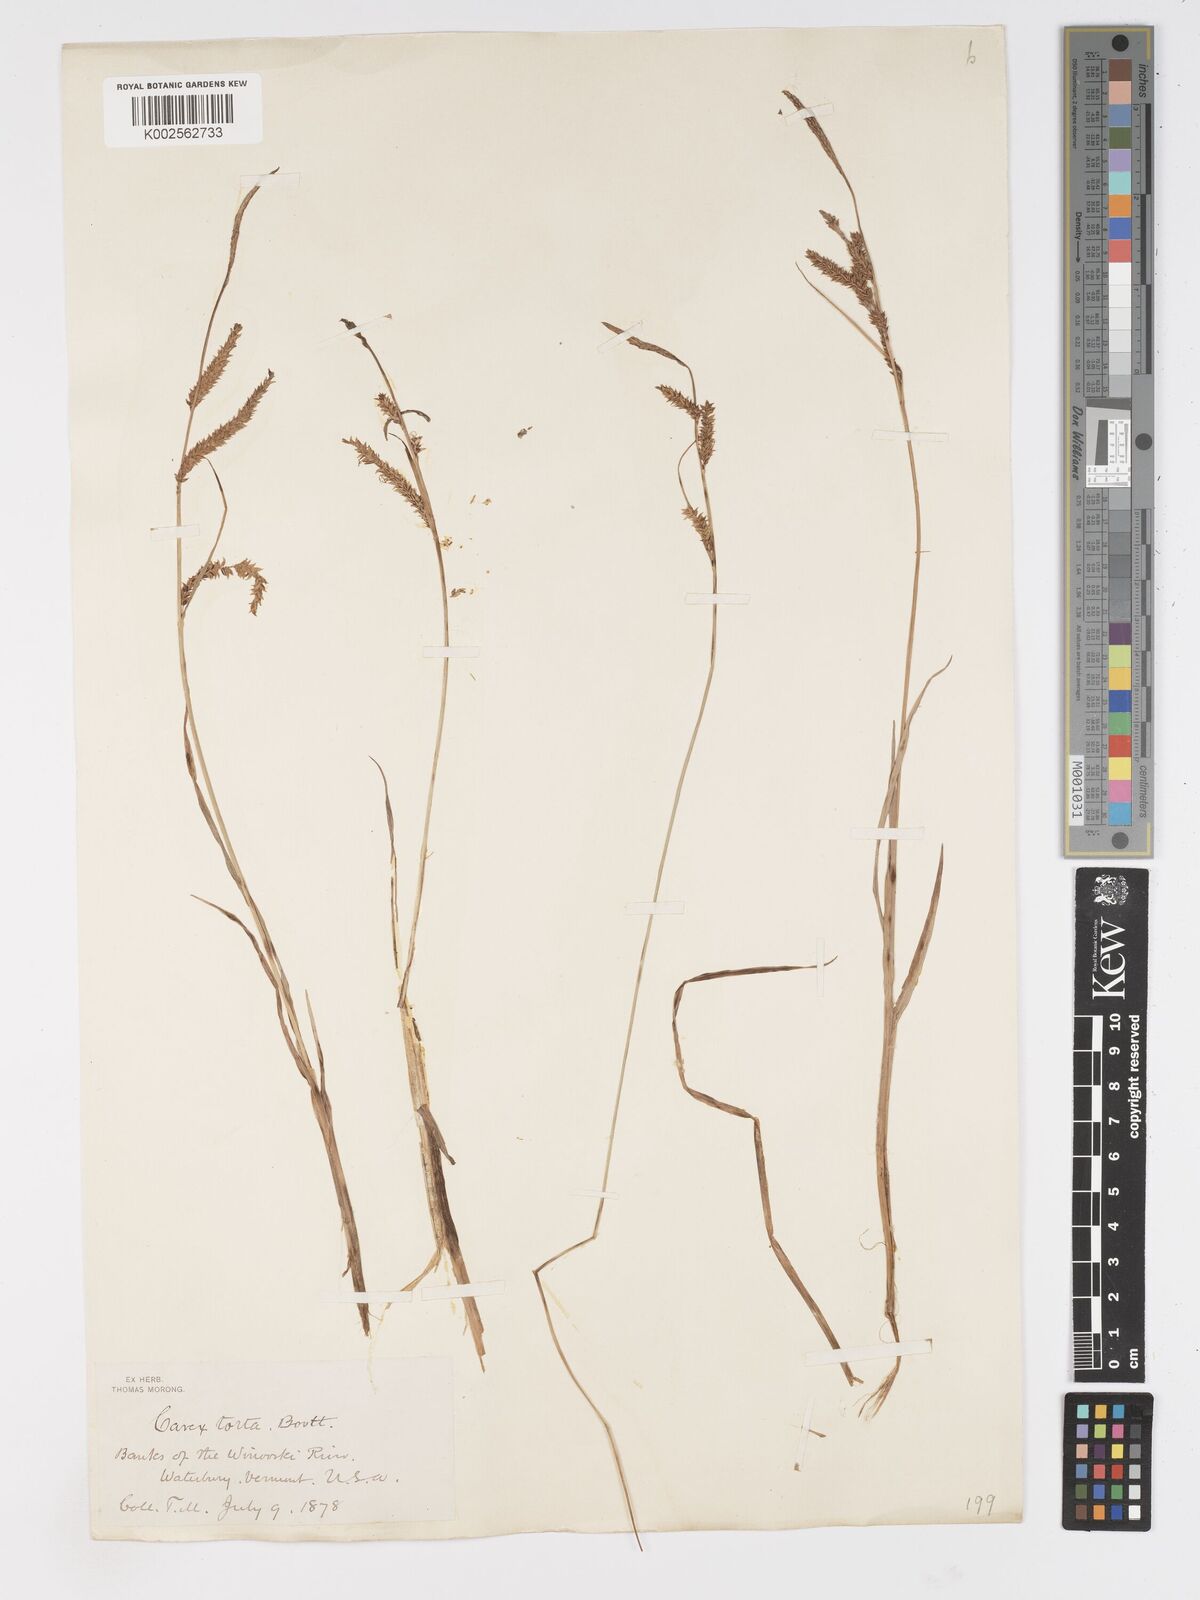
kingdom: Plantae
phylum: Tracheophyta
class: Liliopsida
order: Poales
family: Cyperaceae
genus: Carex
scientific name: Carex torta
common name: Twisted sedge
